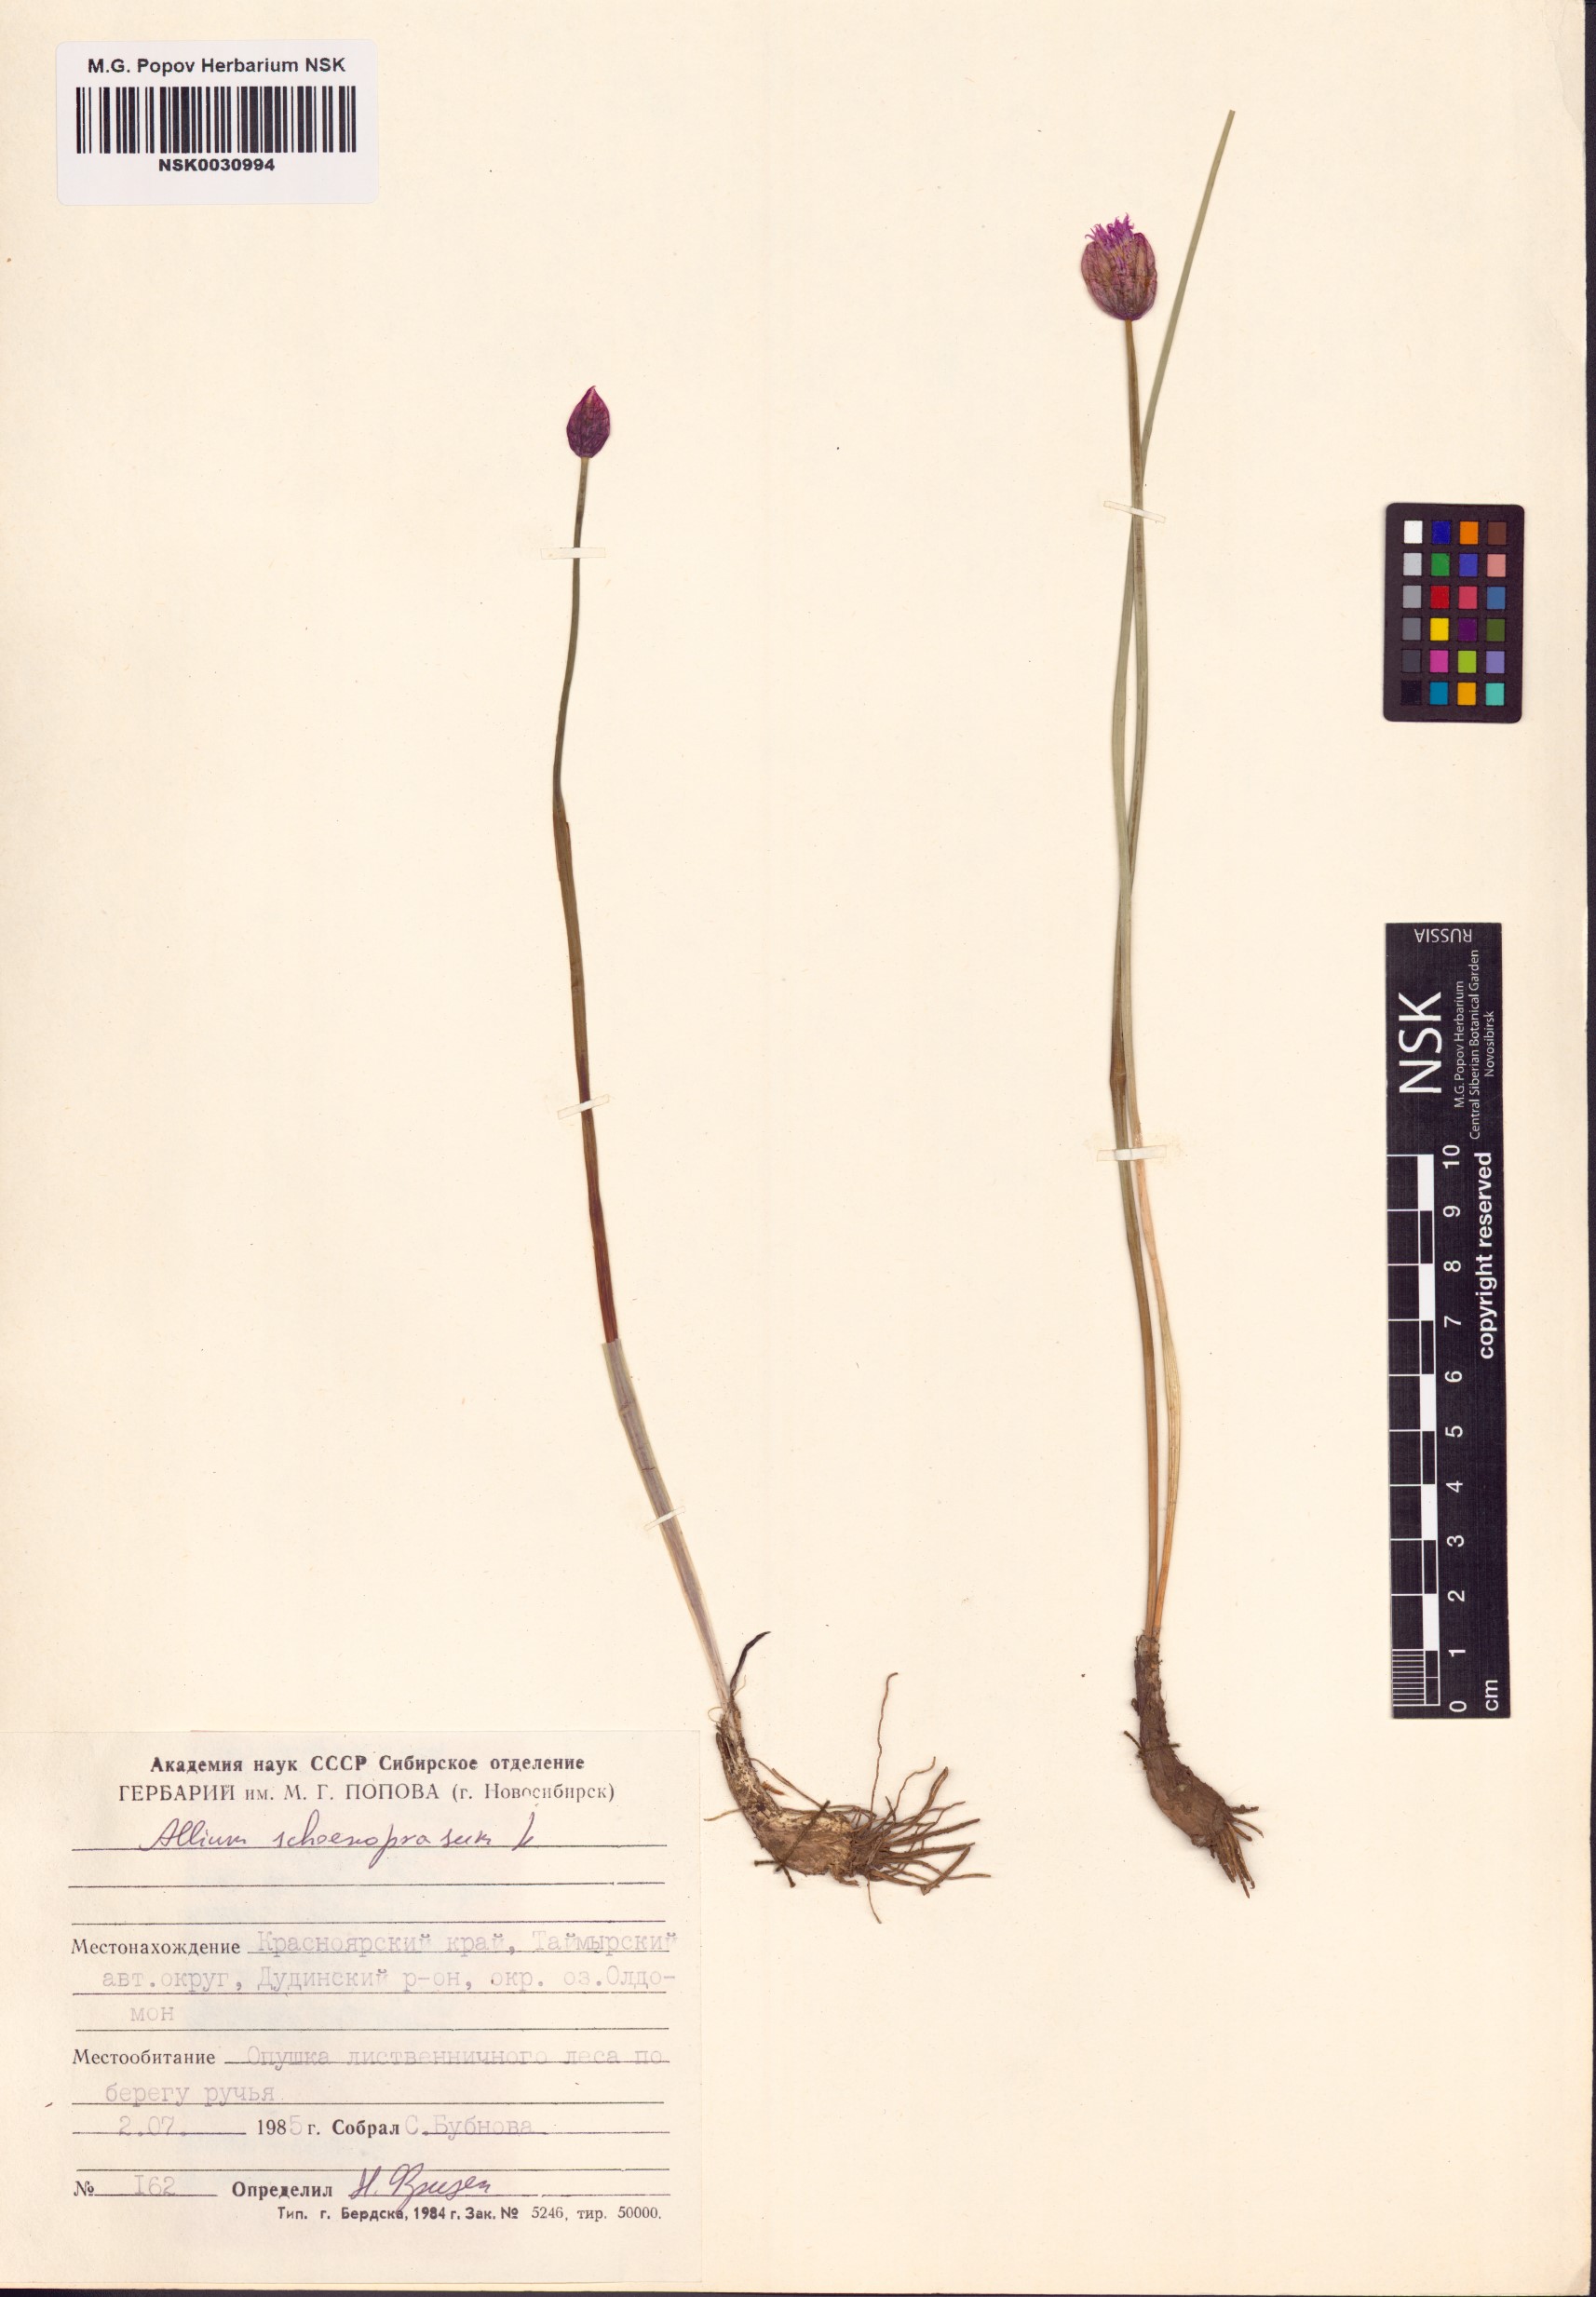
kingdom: Plantae
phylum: Tracheophyta
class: Liliopsida
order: Asparagales
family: Amaryllidaceae
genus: Allium
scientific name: Allium schoenoprasum
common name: Chives
